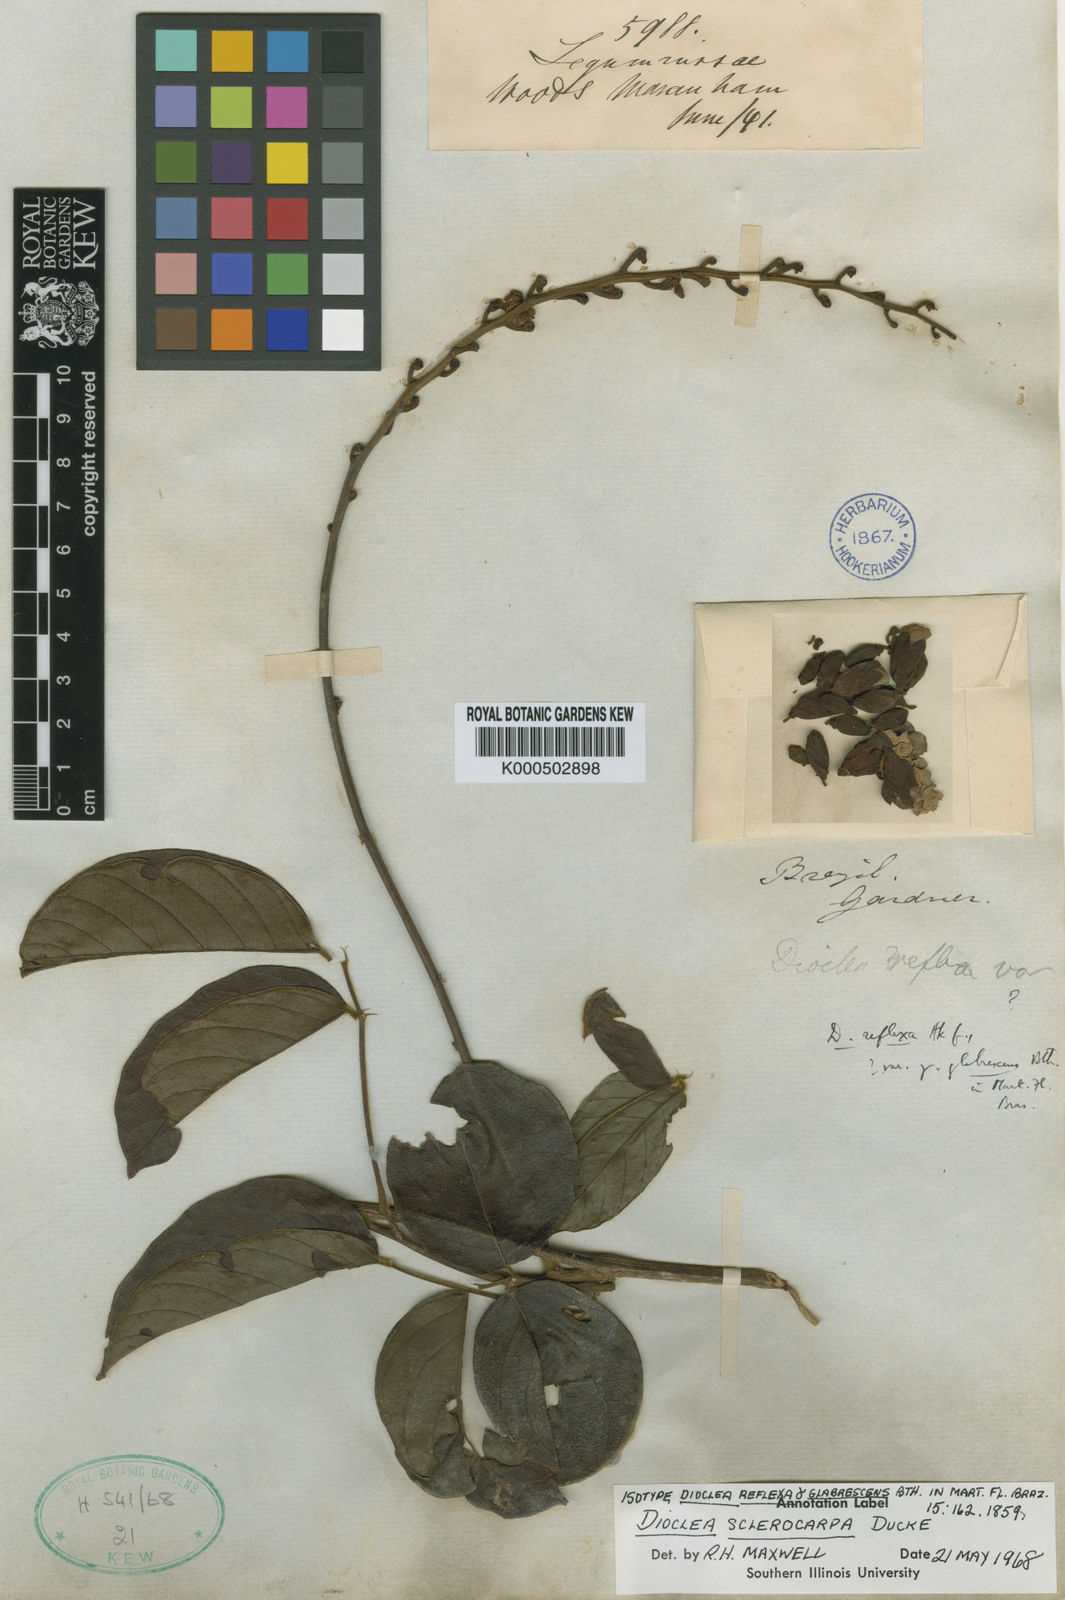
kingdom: Plantae
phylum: Tracheophyta
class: Magnoliopsida
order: Fabales
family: Fabaceae
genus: Macropsychanthus
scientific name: Macropsychanthus sclerocarpus
